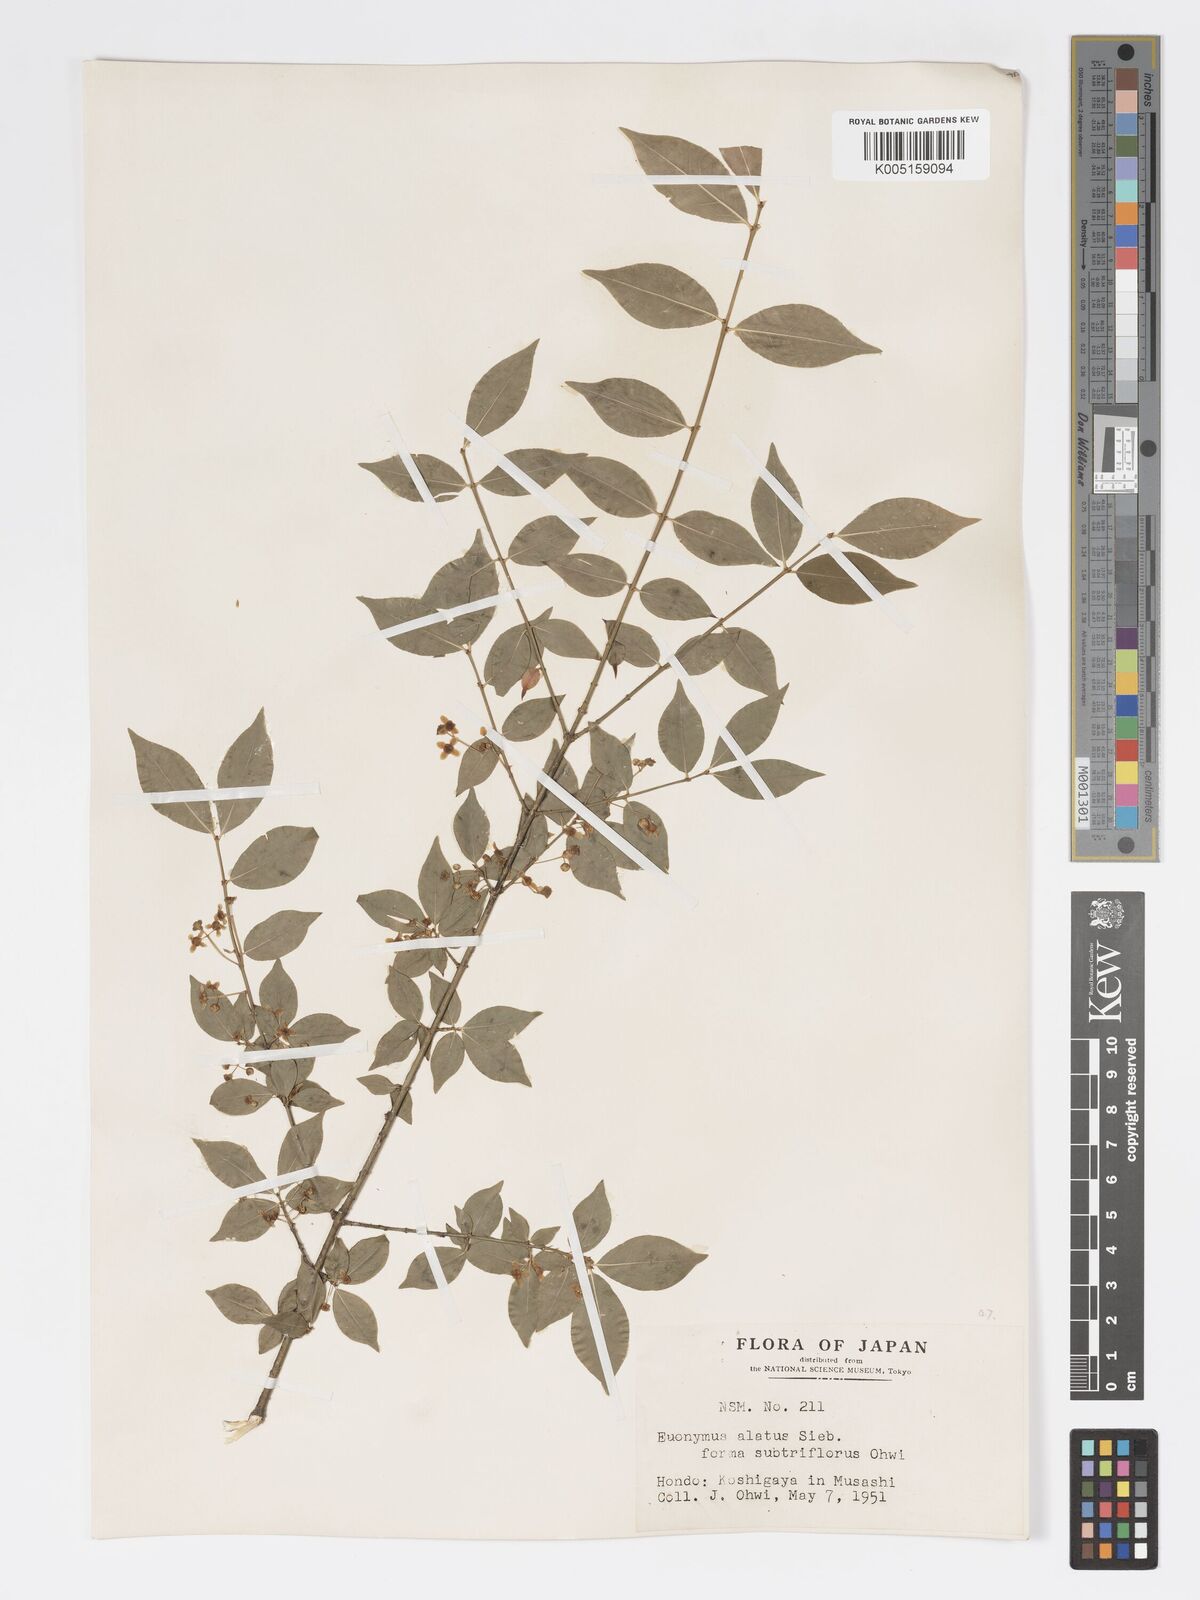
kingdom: Plantae
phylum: Tracheophyta
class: Magnoliopsida
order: Celastrales
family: Celastraceae
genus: Euonymus
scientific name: Euonymus
